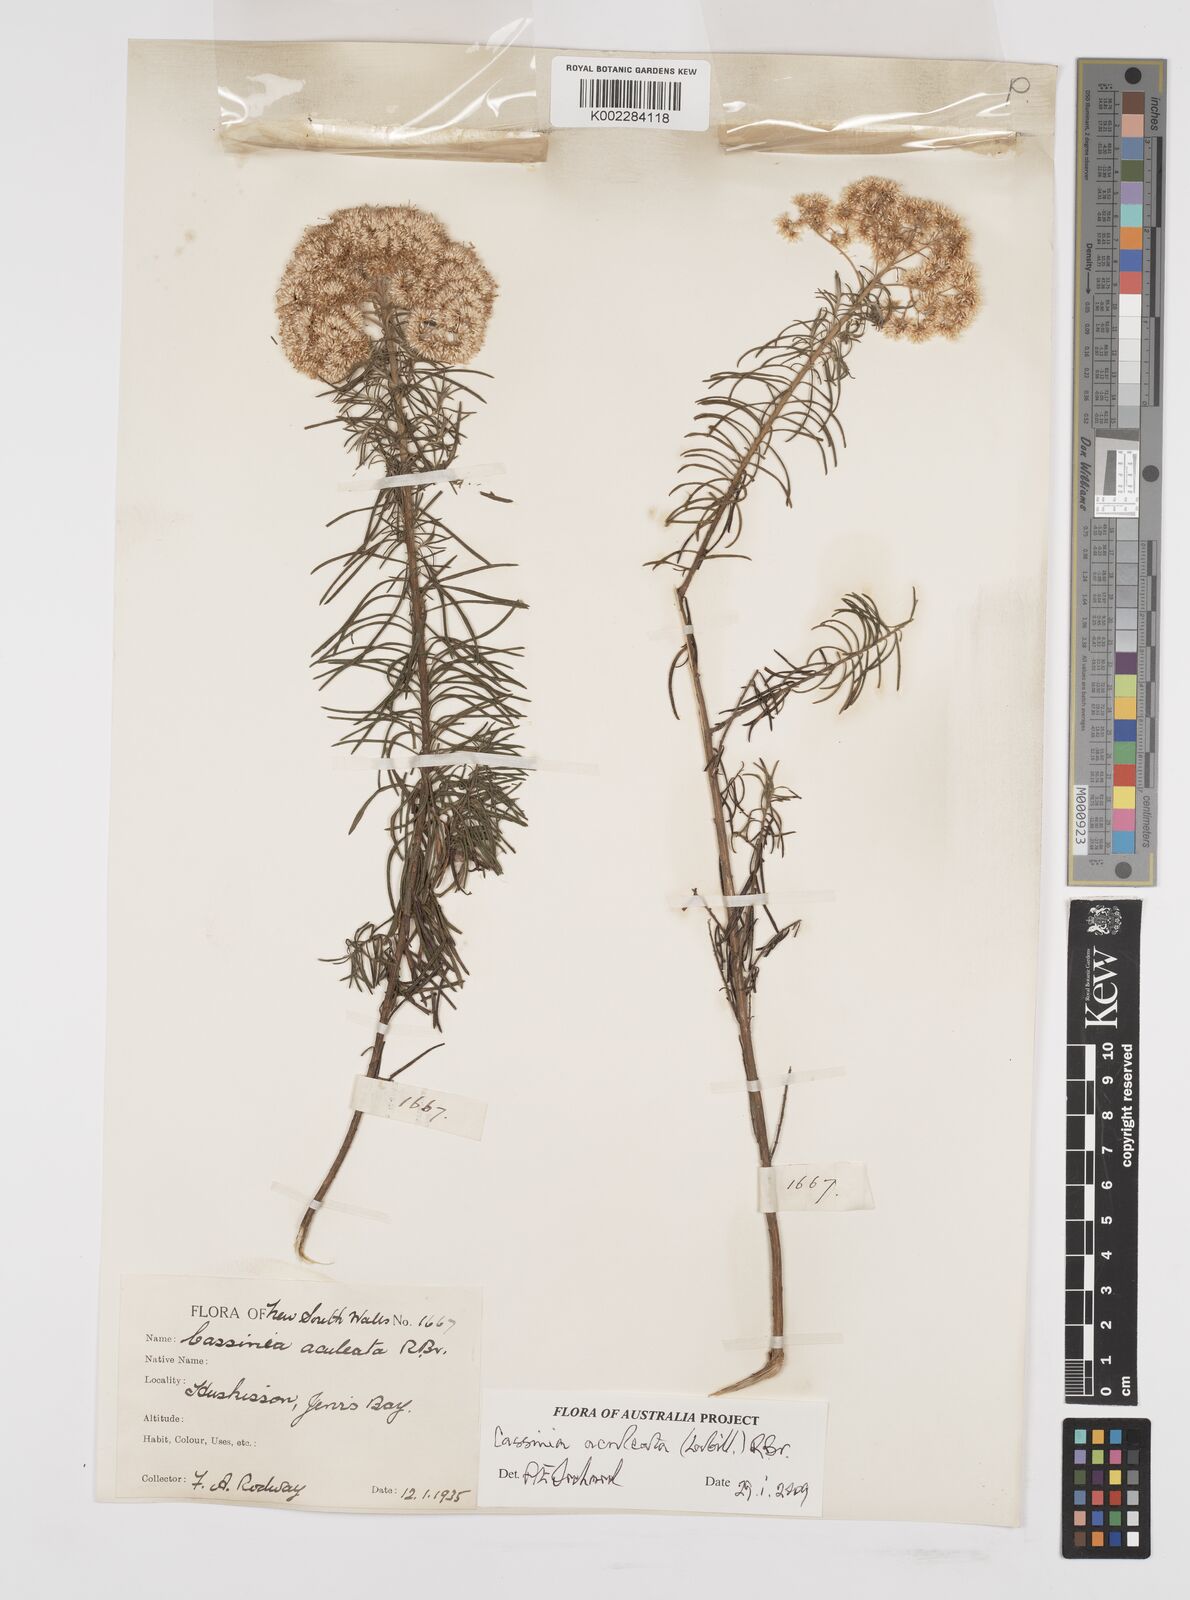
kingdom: Plantae
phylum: Tracheophyta
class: Magnoliopsida
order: Asterales
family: Asteraceae
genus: Cassinia
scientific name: Cassinia aculeata
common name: Australian tauhinu
